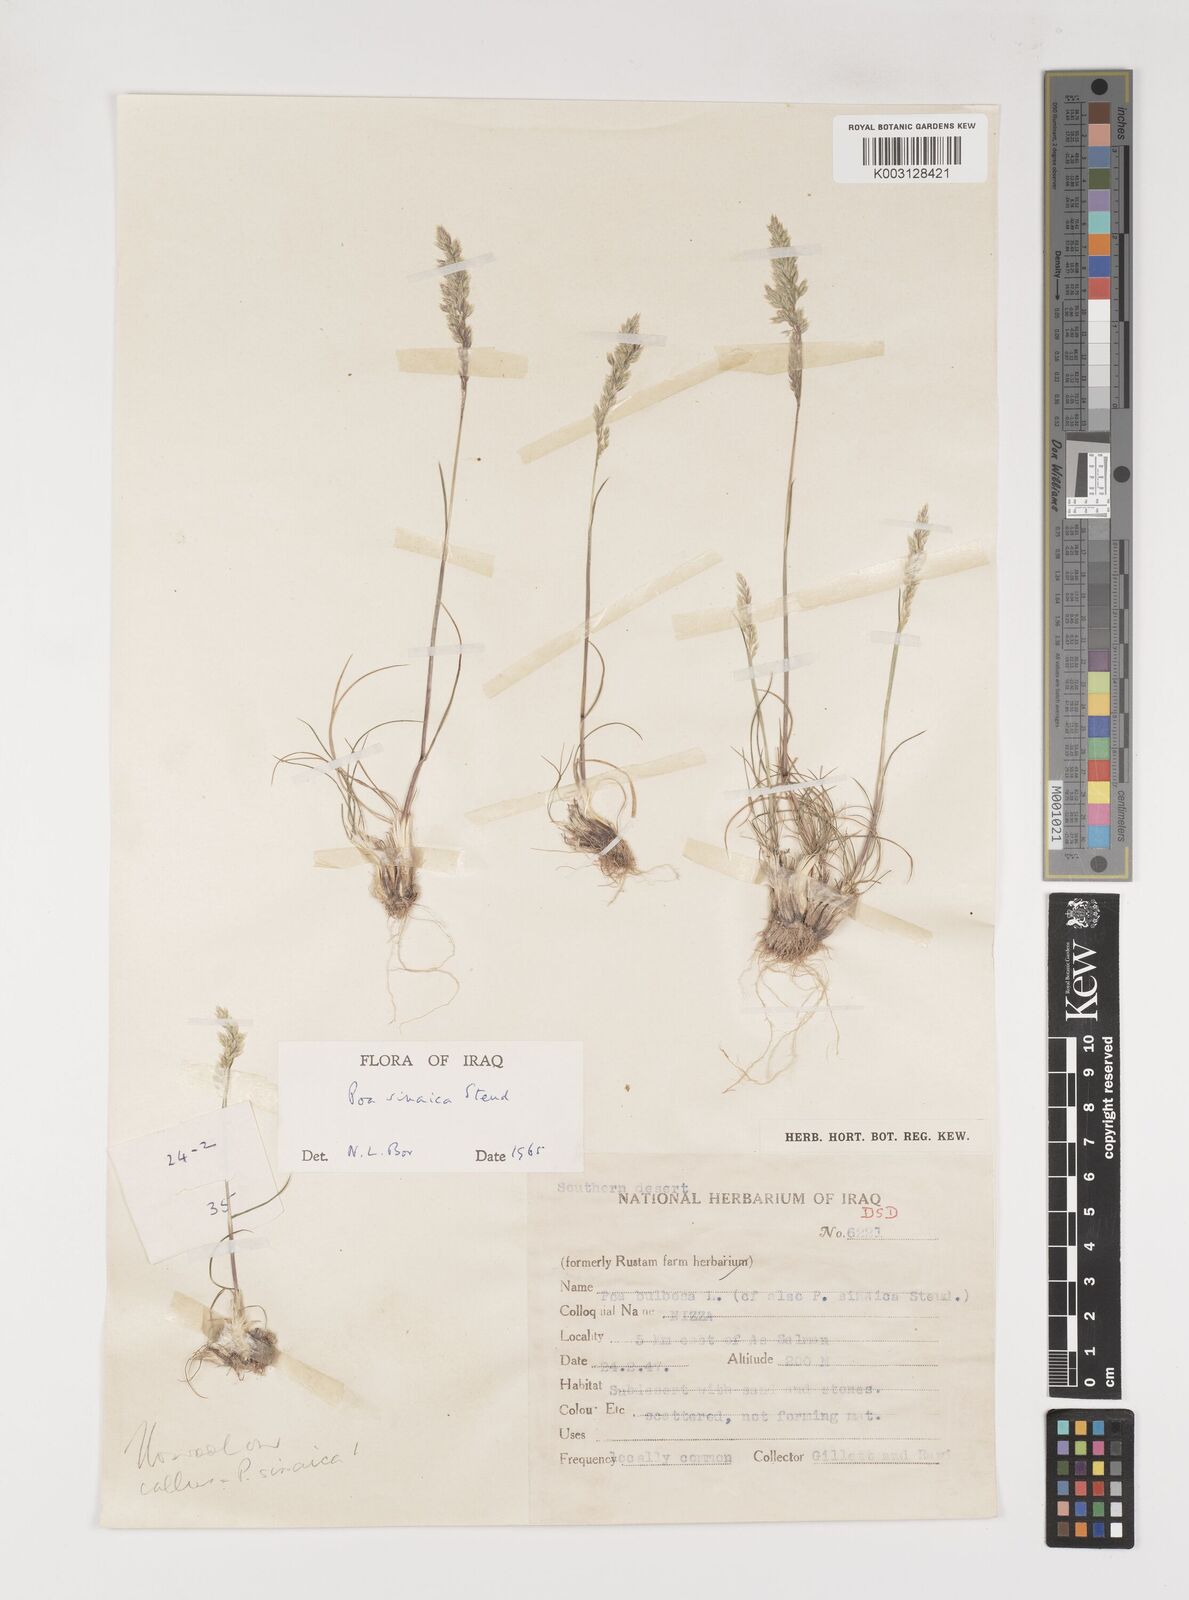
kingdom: Plantae
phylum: Tracheophyta
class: Liliopsida
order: Poales
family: Poaceae
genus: Poa
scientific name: Poa sinaica
